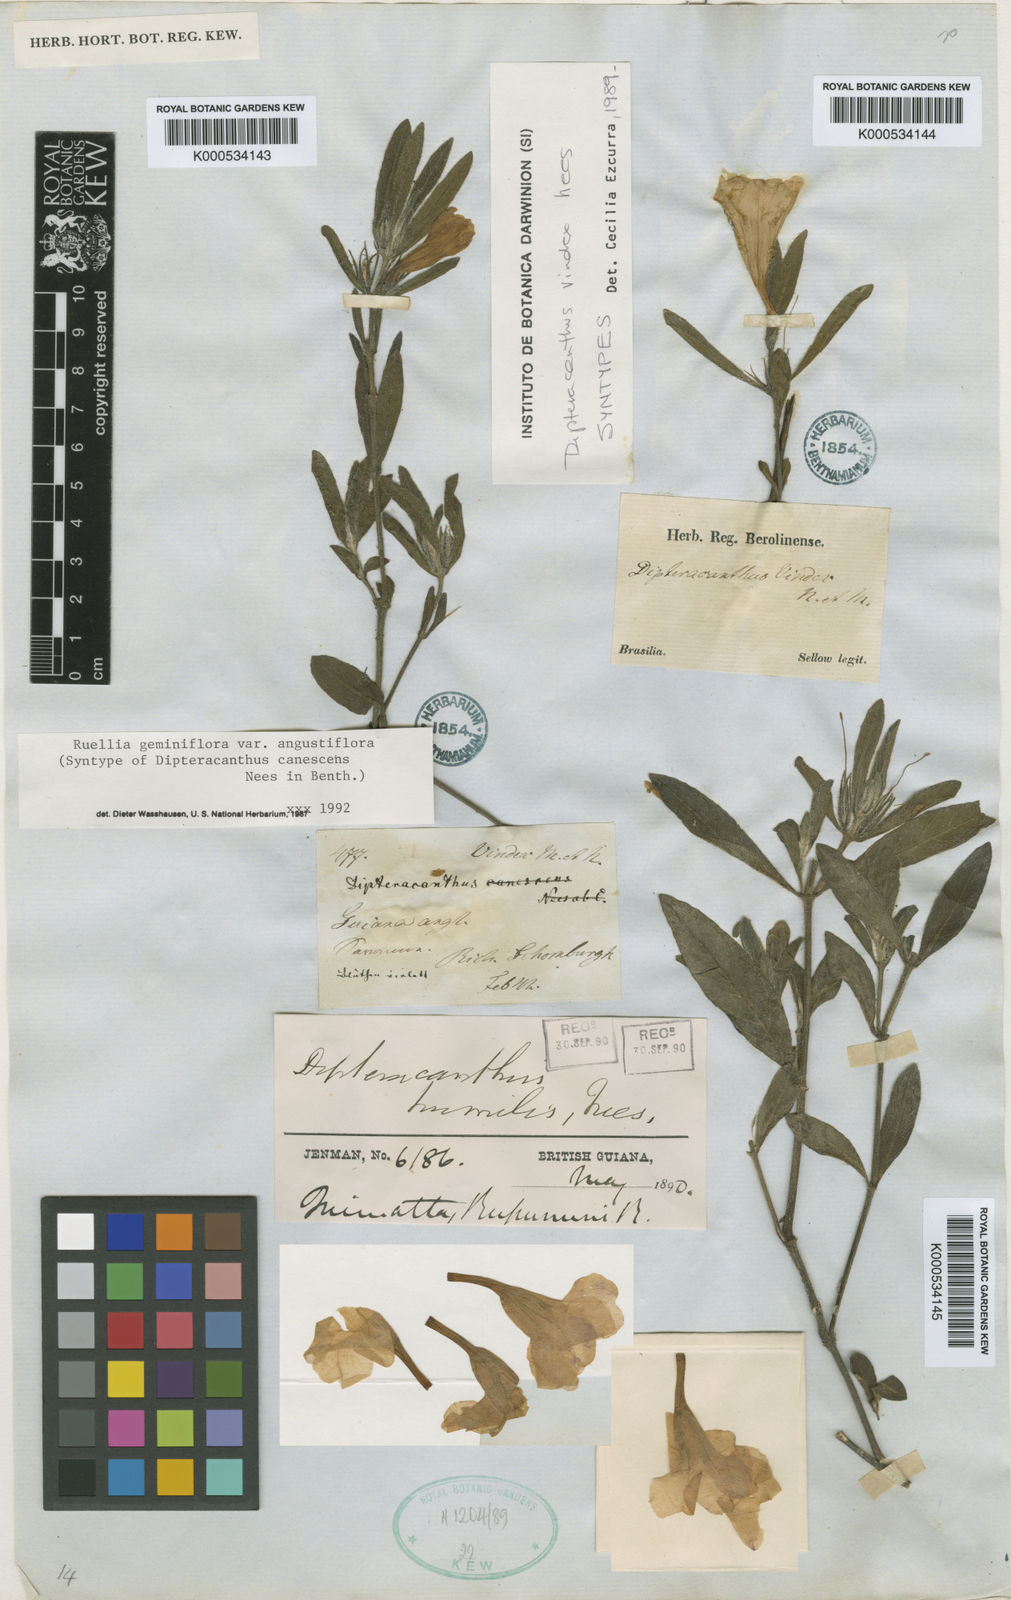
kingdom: Plantae
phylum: Tracheophyta
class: Magnoliopsida
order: Lamiales
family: Acanthaceae
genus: Ruellia
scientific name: Ruellia geminiflora
